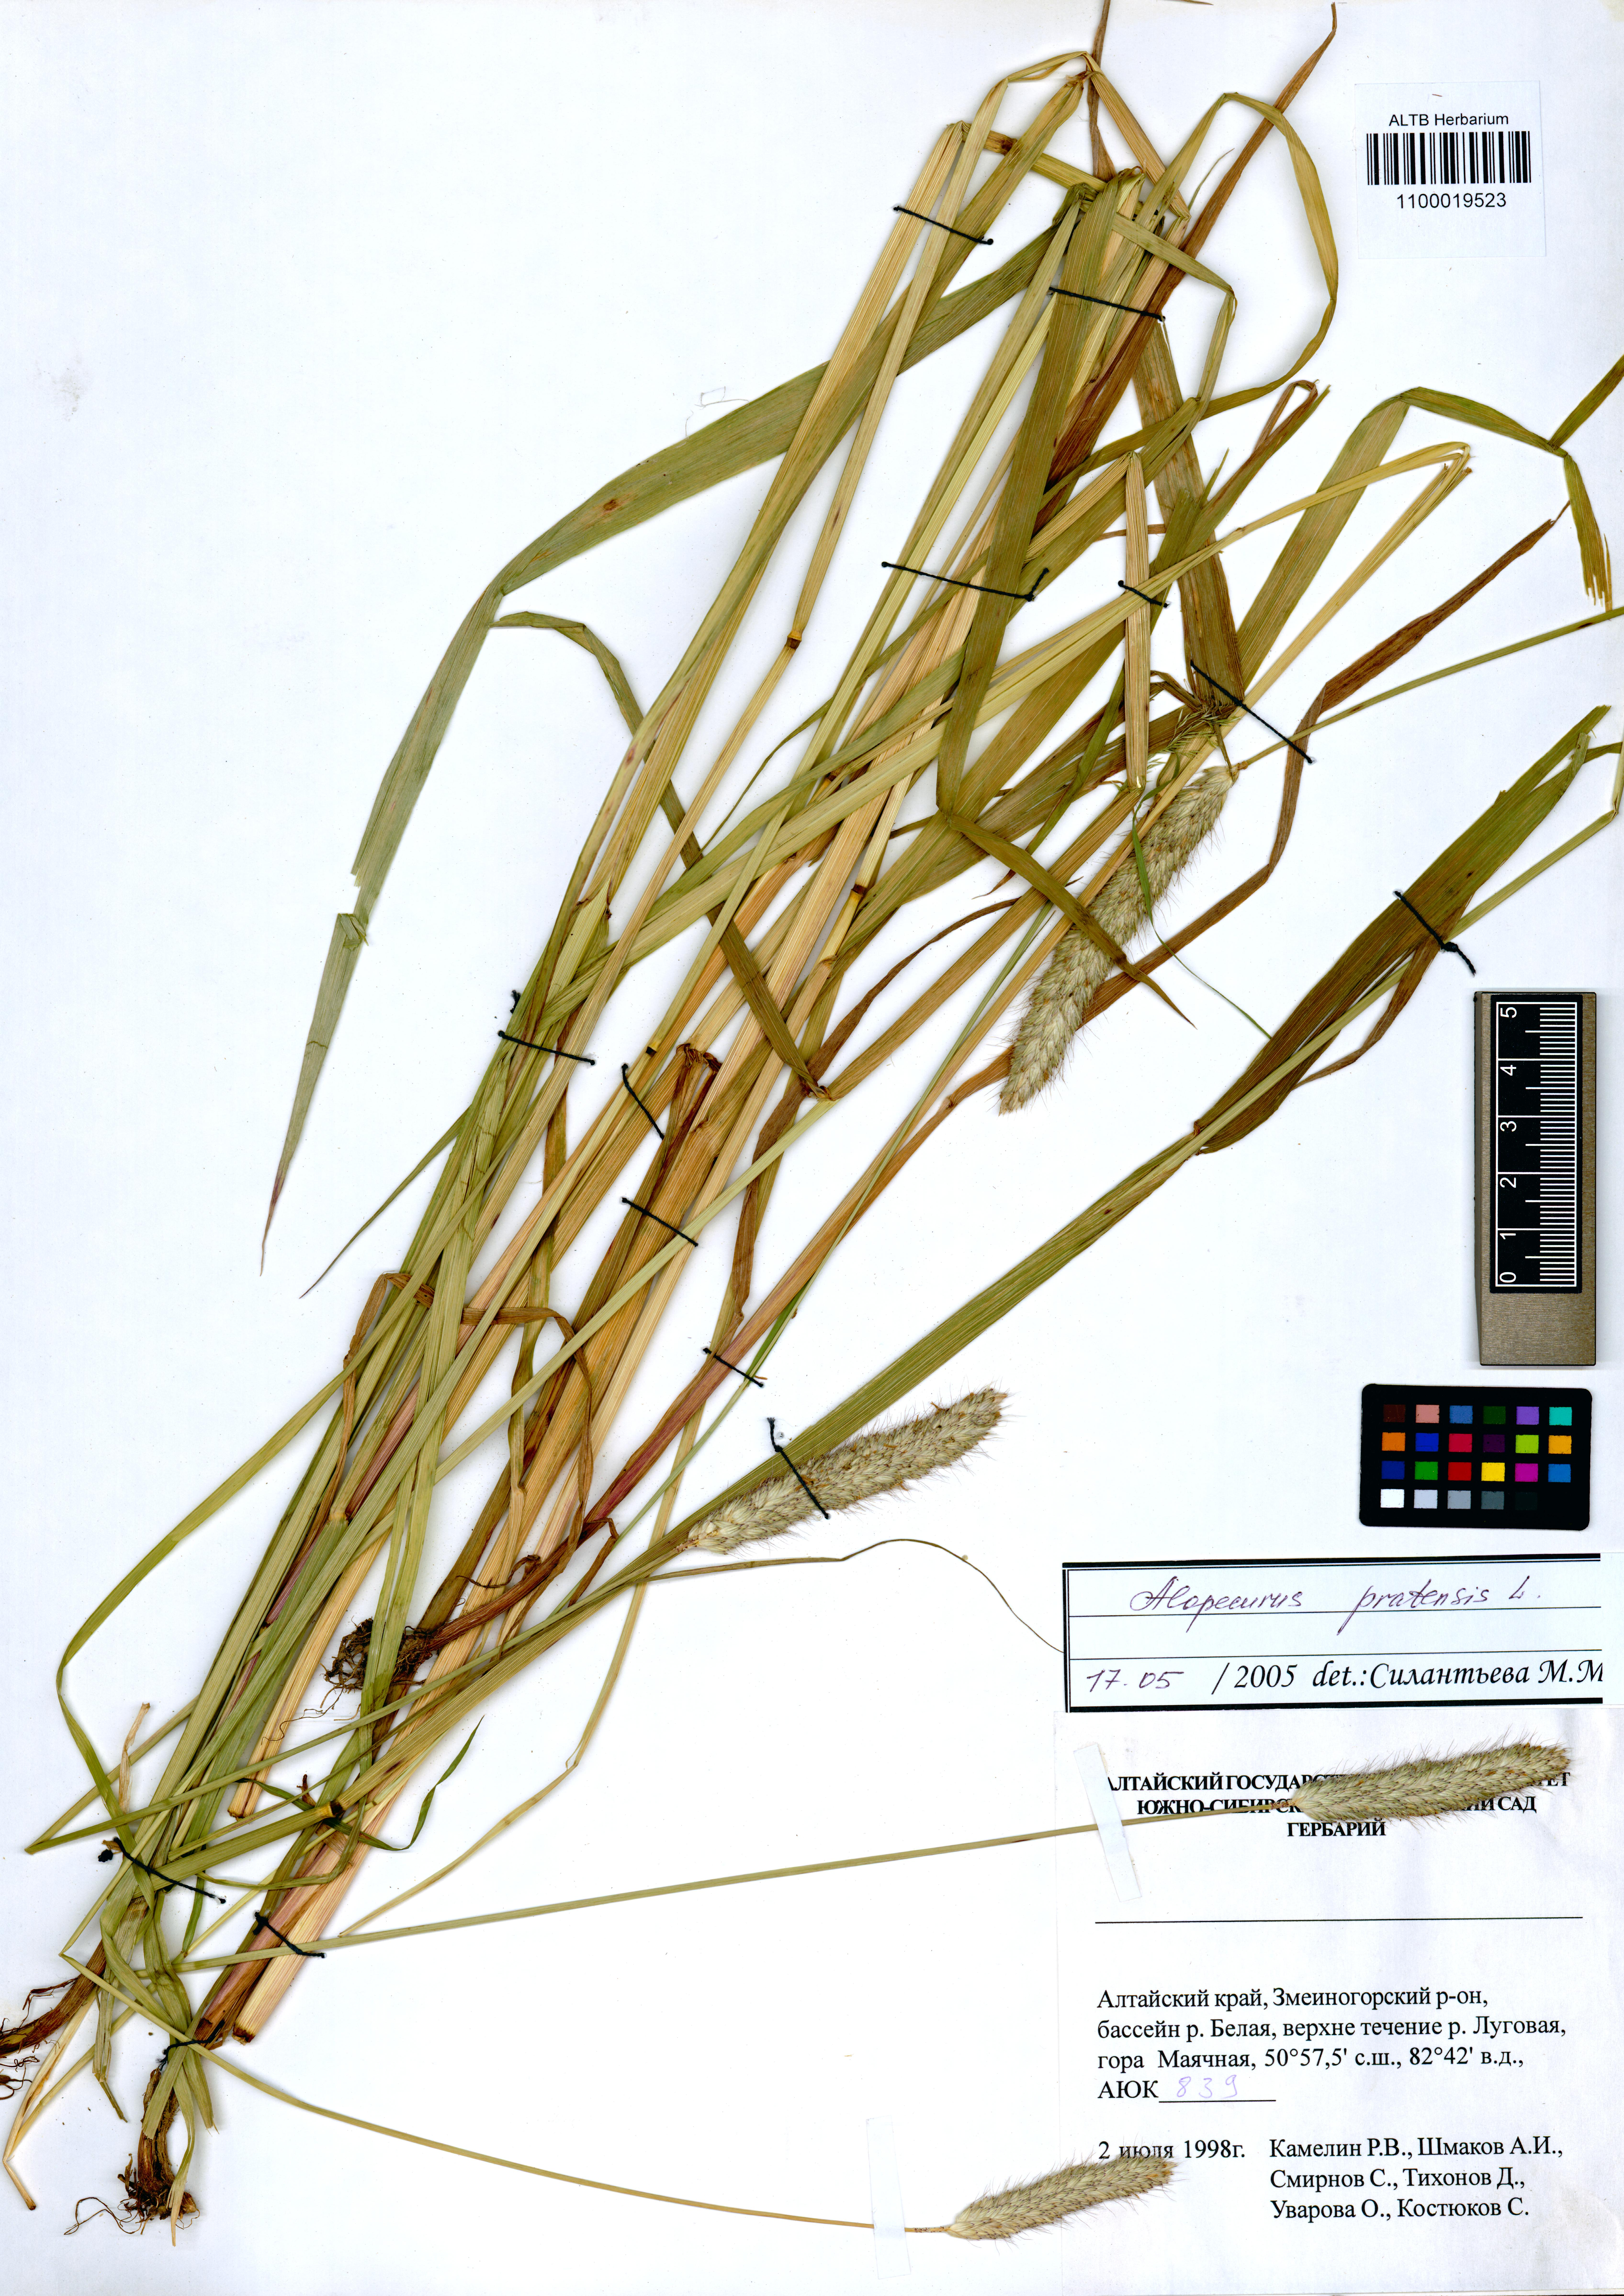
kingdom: Plantae
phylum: Tracheophyta
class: Liliopsida
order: Poales
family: Poaceae
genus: Alopecurus
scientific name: Alopecurus pratensis
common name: Meadow foxtail
